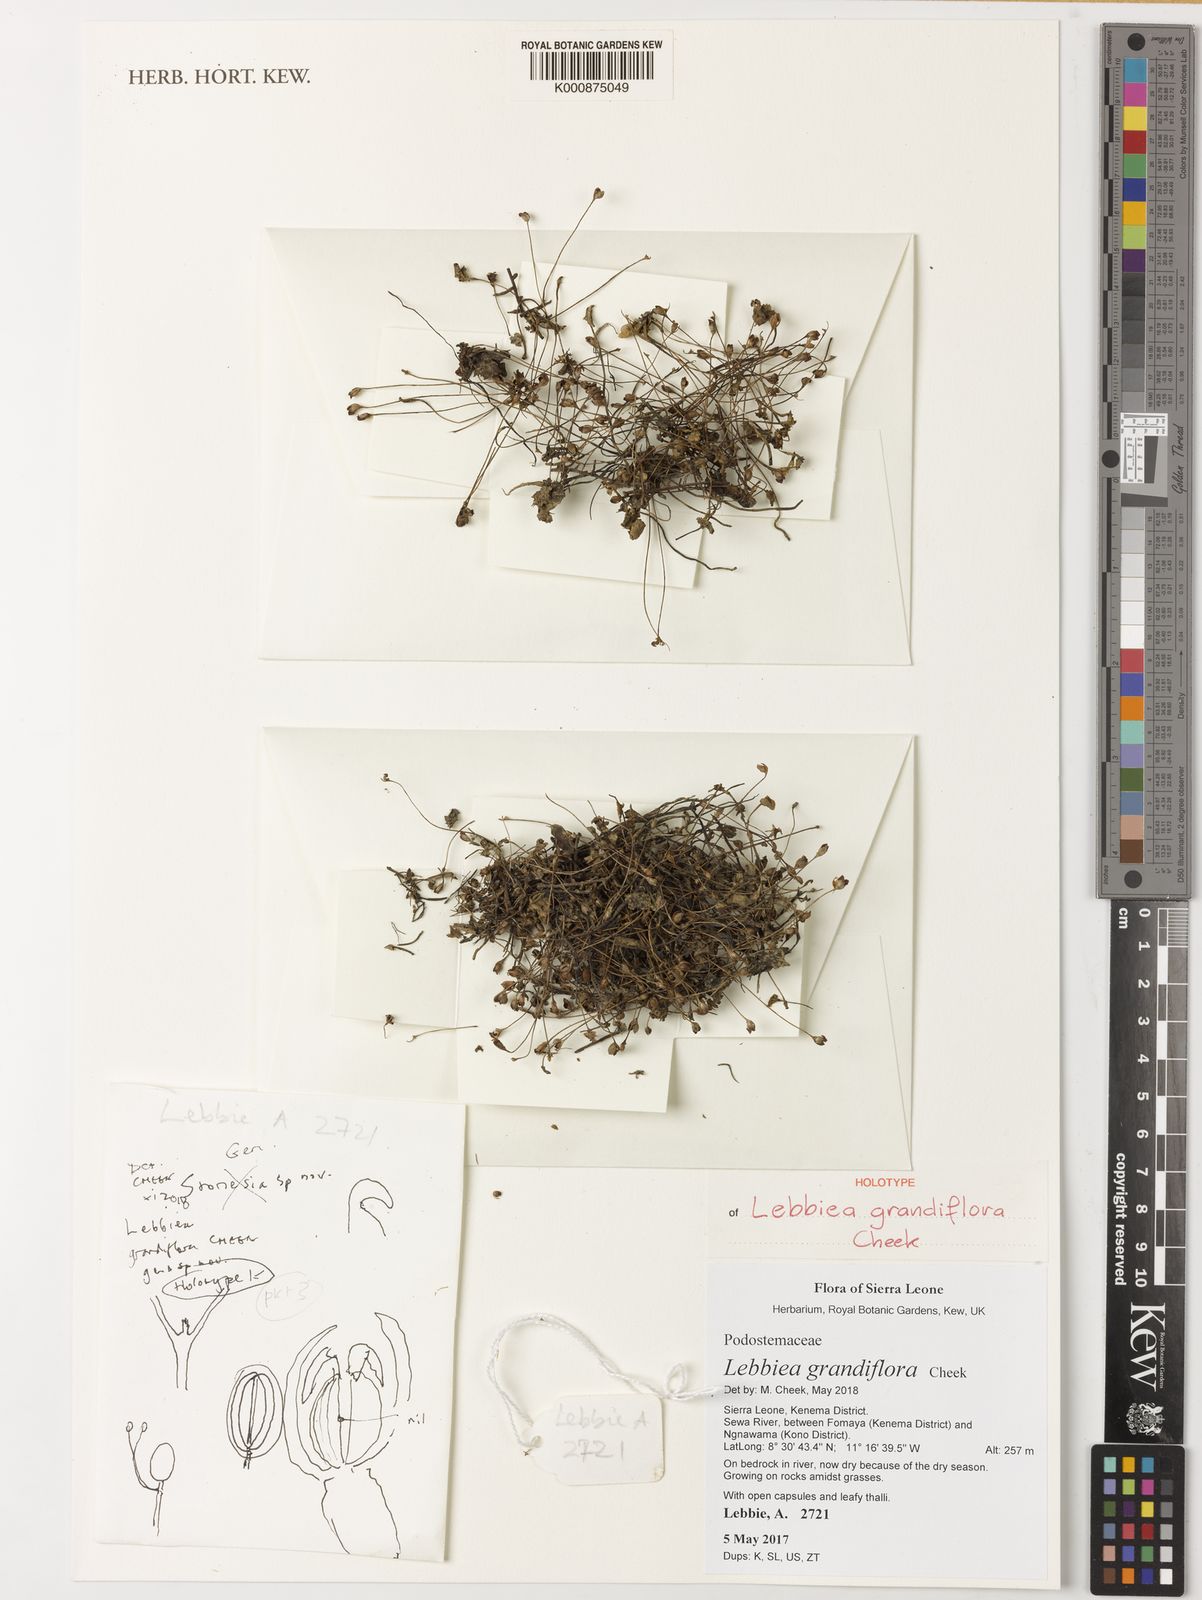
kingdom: Plantae
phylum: Tracheophyta
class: Magnoliopsida
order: Malpighiales
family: Podostemaceae
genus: Lebbiea
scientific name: Lebbiea grandiflora
